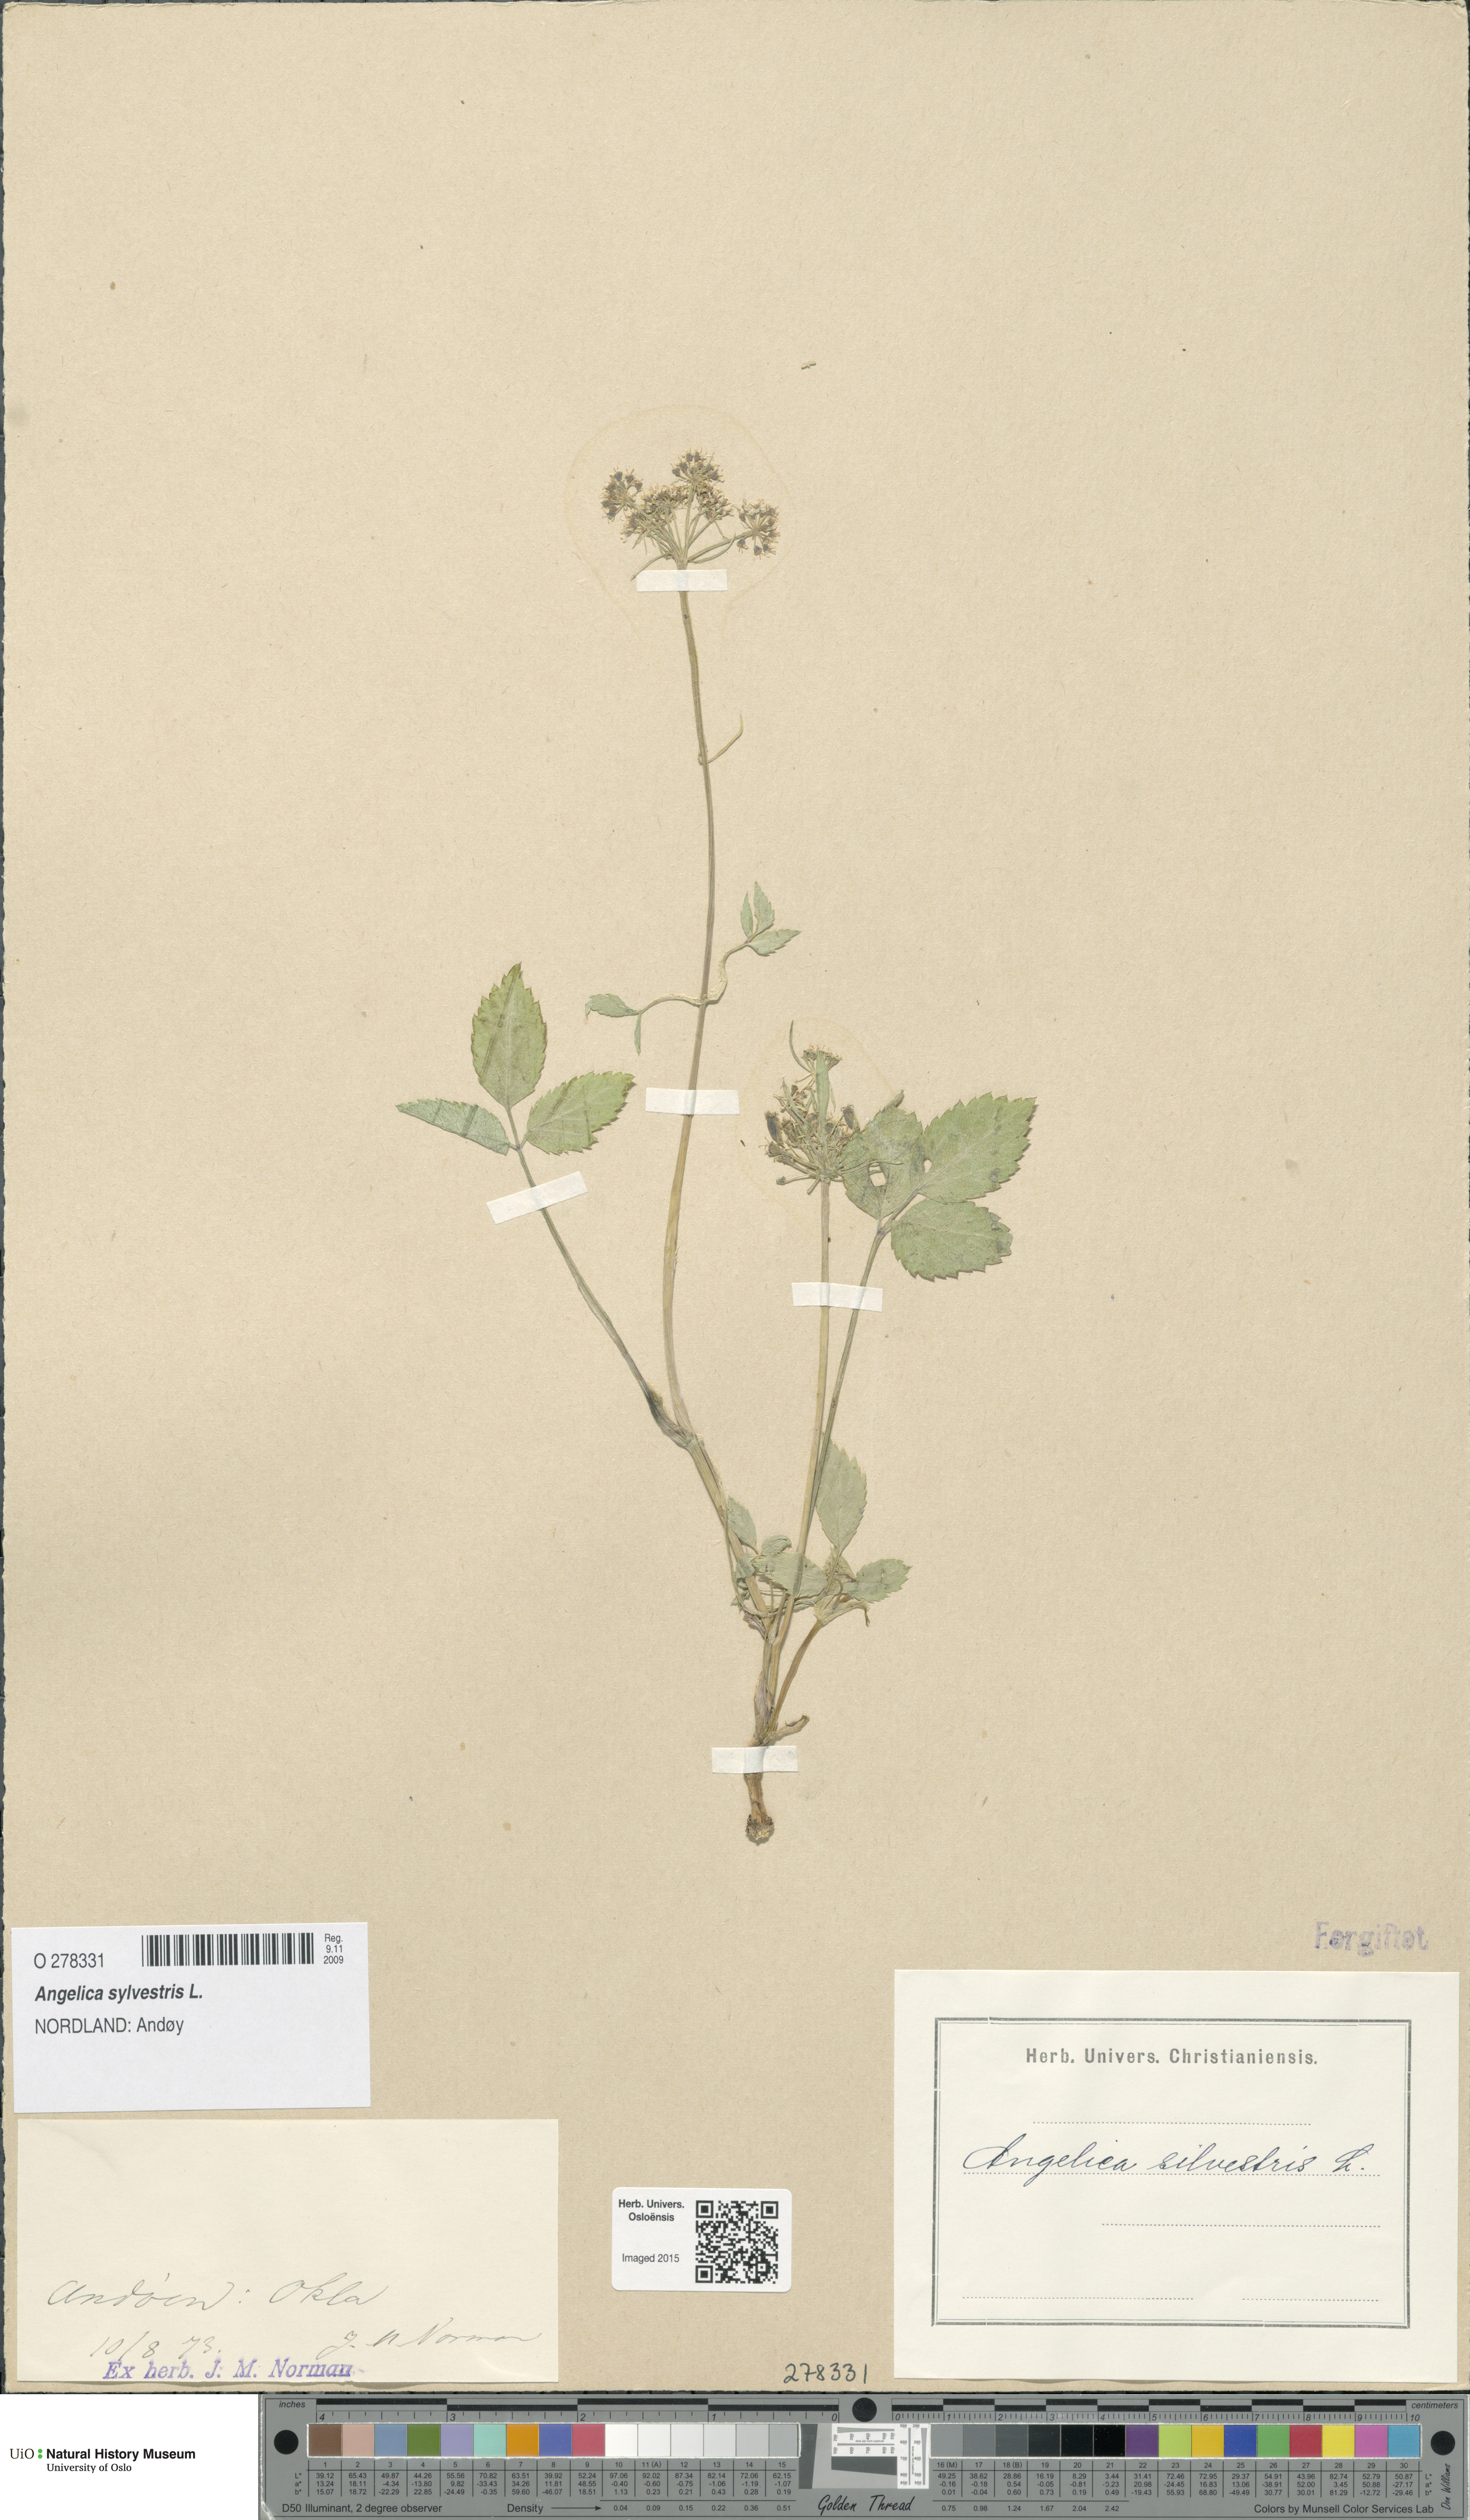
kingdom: Plantae
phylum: Tracheophyta
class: Magnoliopsida
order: Apiales
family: Apiaceae
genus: Angelica
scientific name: Angelica sylvestris
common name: Wild angelica
